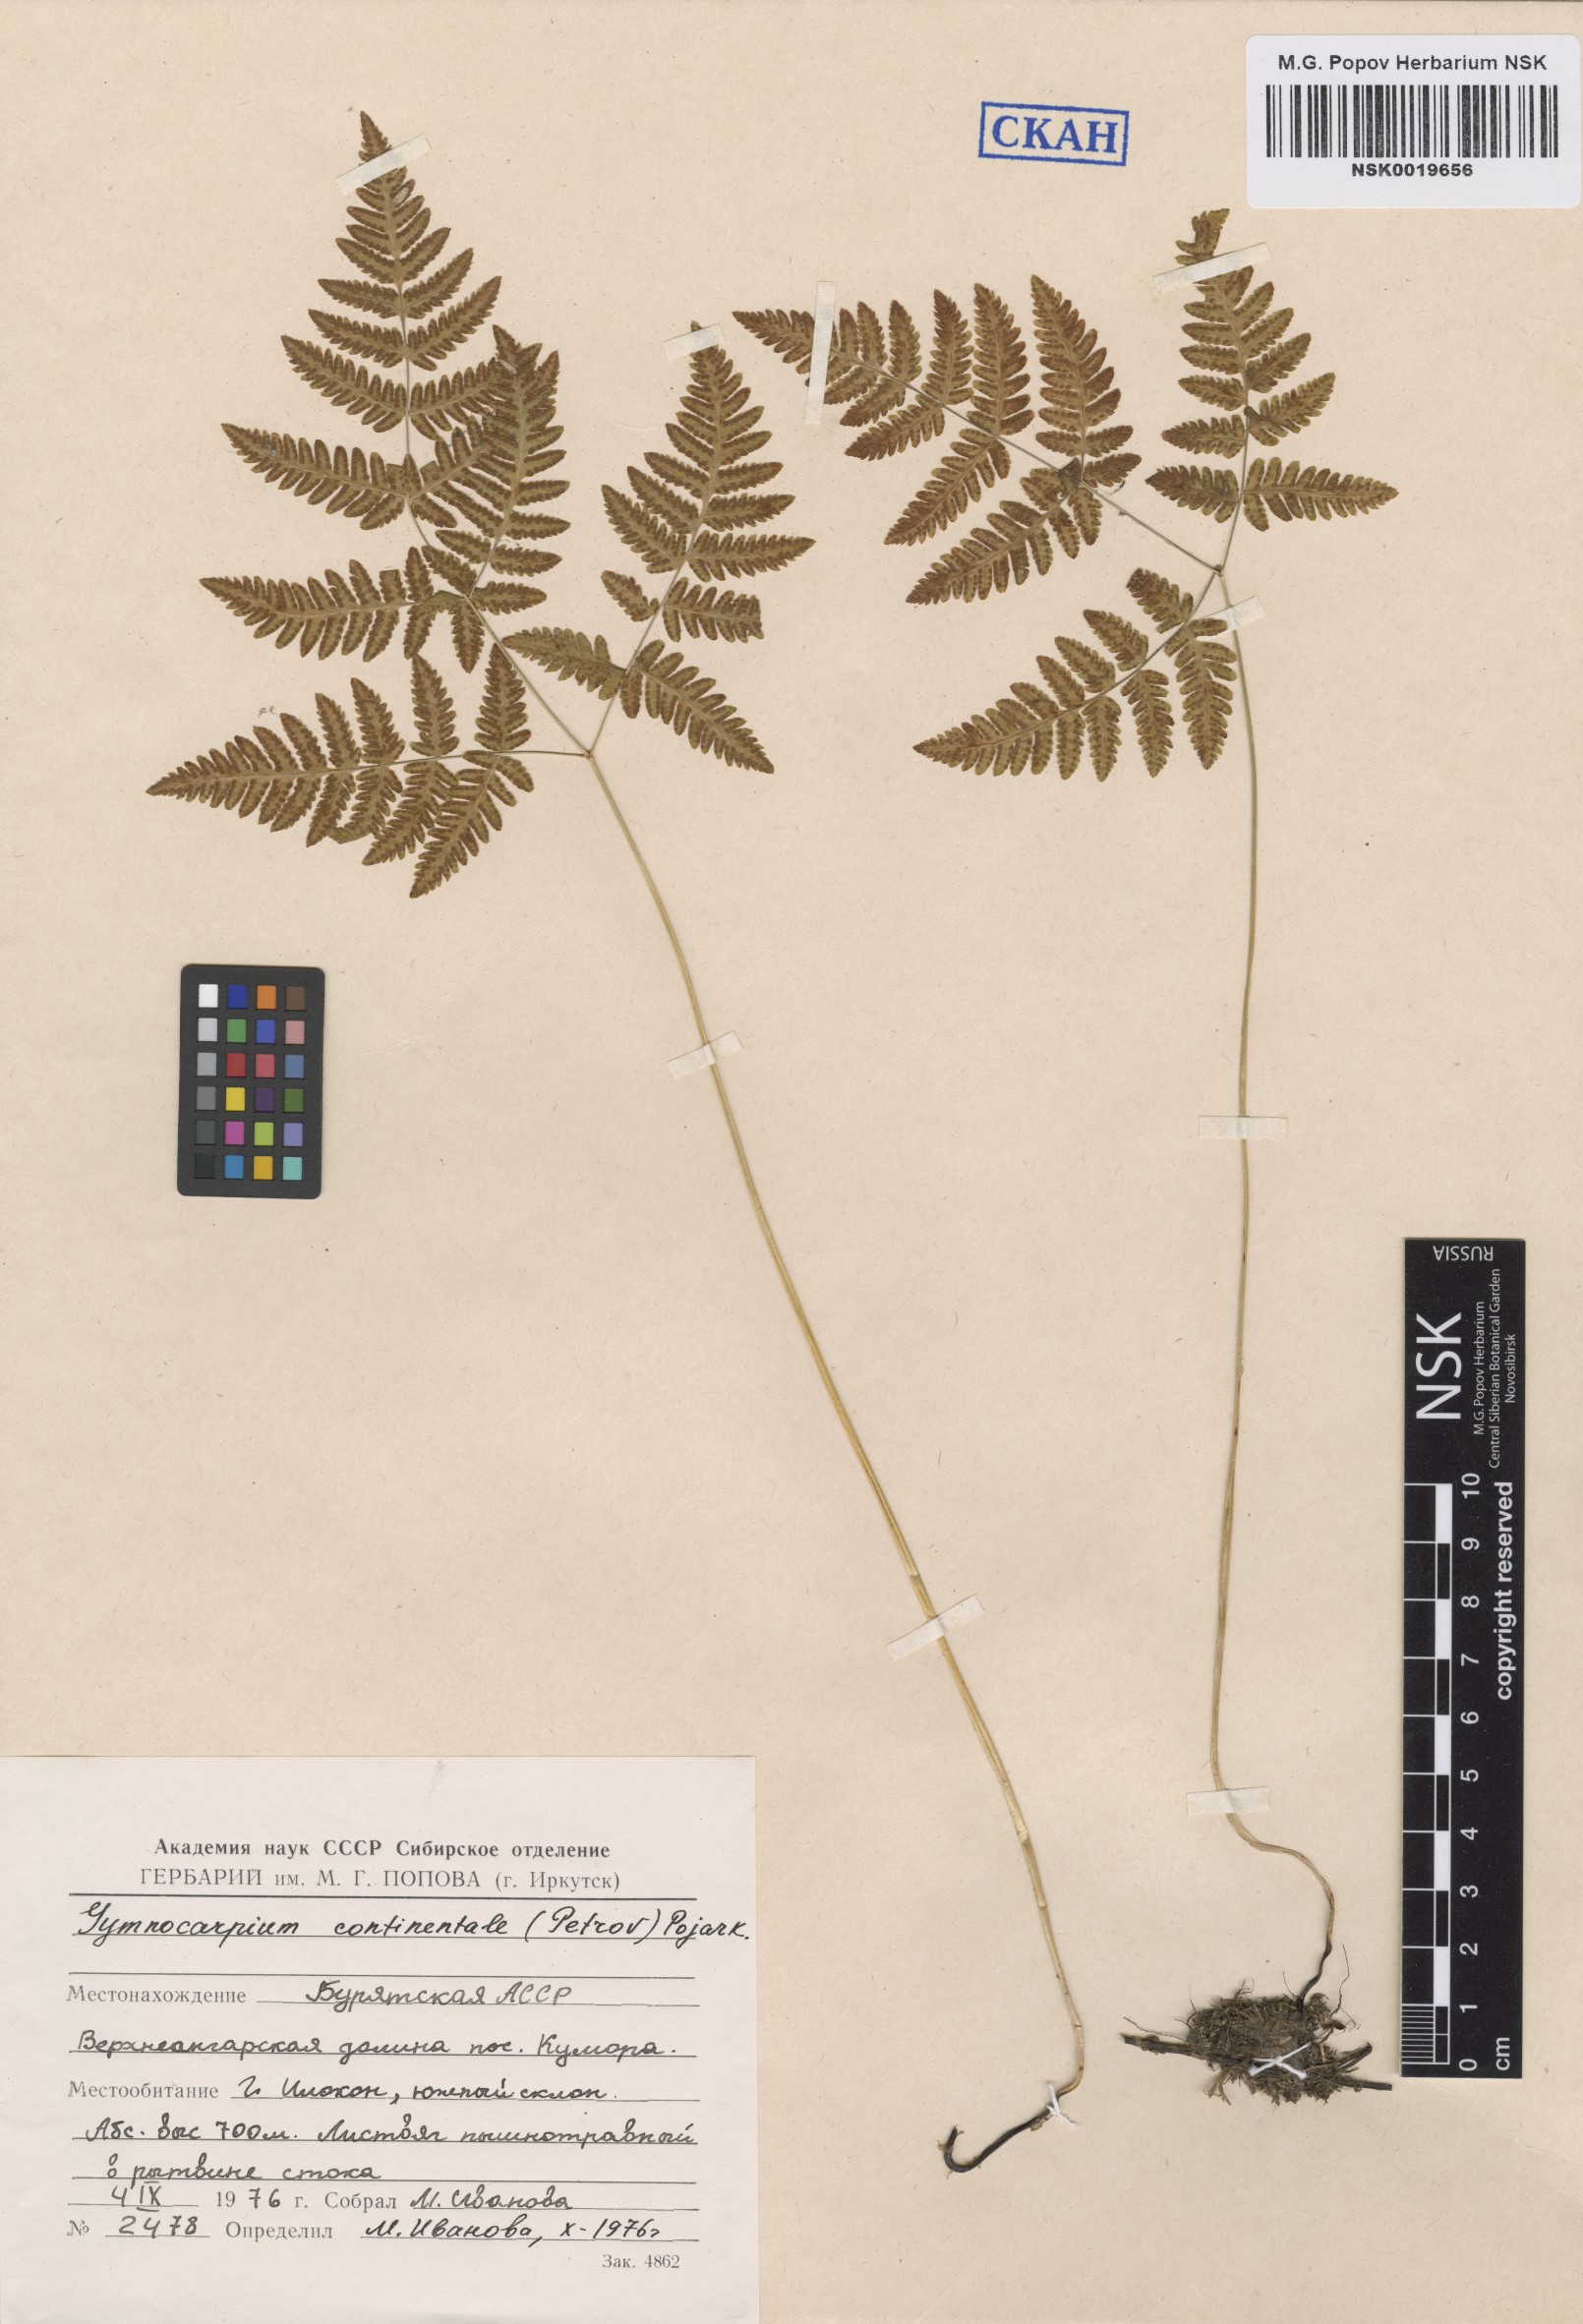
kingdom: Plantae
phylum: Tracheophyta
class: Polypodiopsida
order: Polypodiales
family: Cystopteridaceae
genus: Gymnocarpium
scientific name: Gymnocarpium continentale
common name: Asian oak fern
